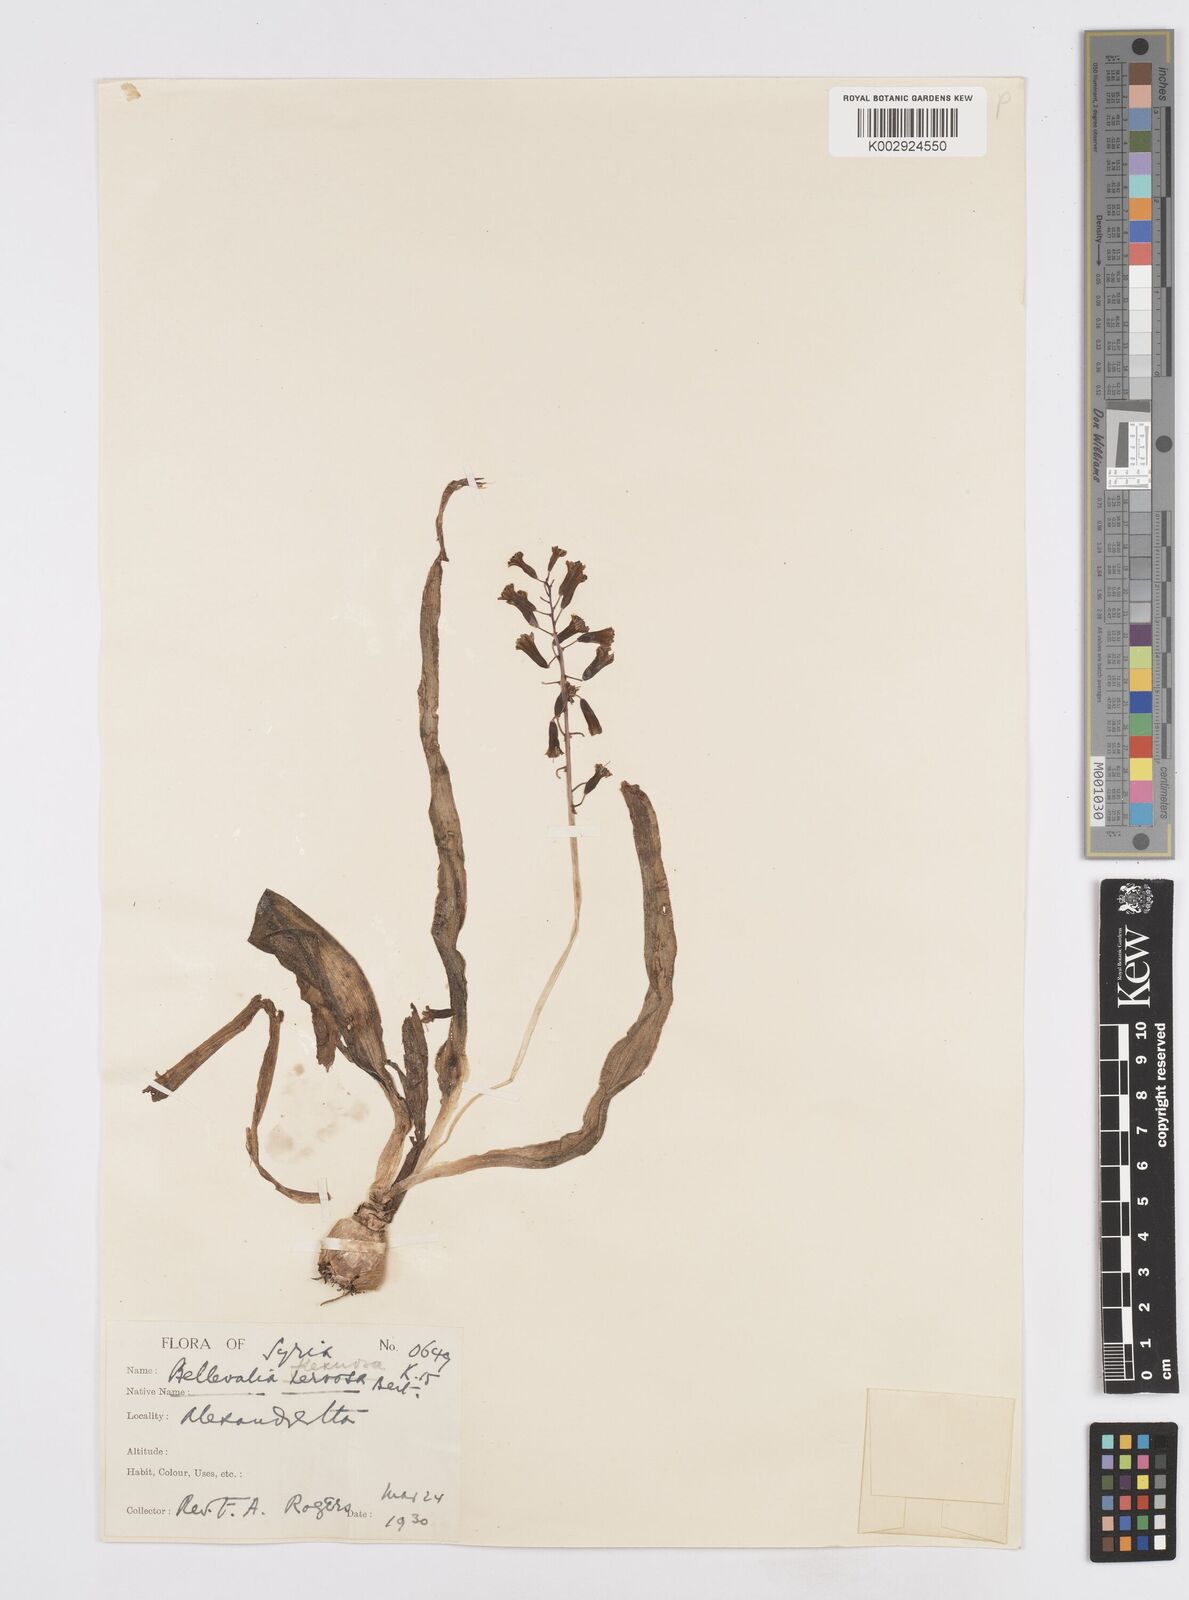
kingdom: Plantae
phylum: Tracheophyta
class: Liliopsida
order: Asparagales
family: Asparagaceae
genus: Bellevalia
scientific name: Bellevalia flexuosa
